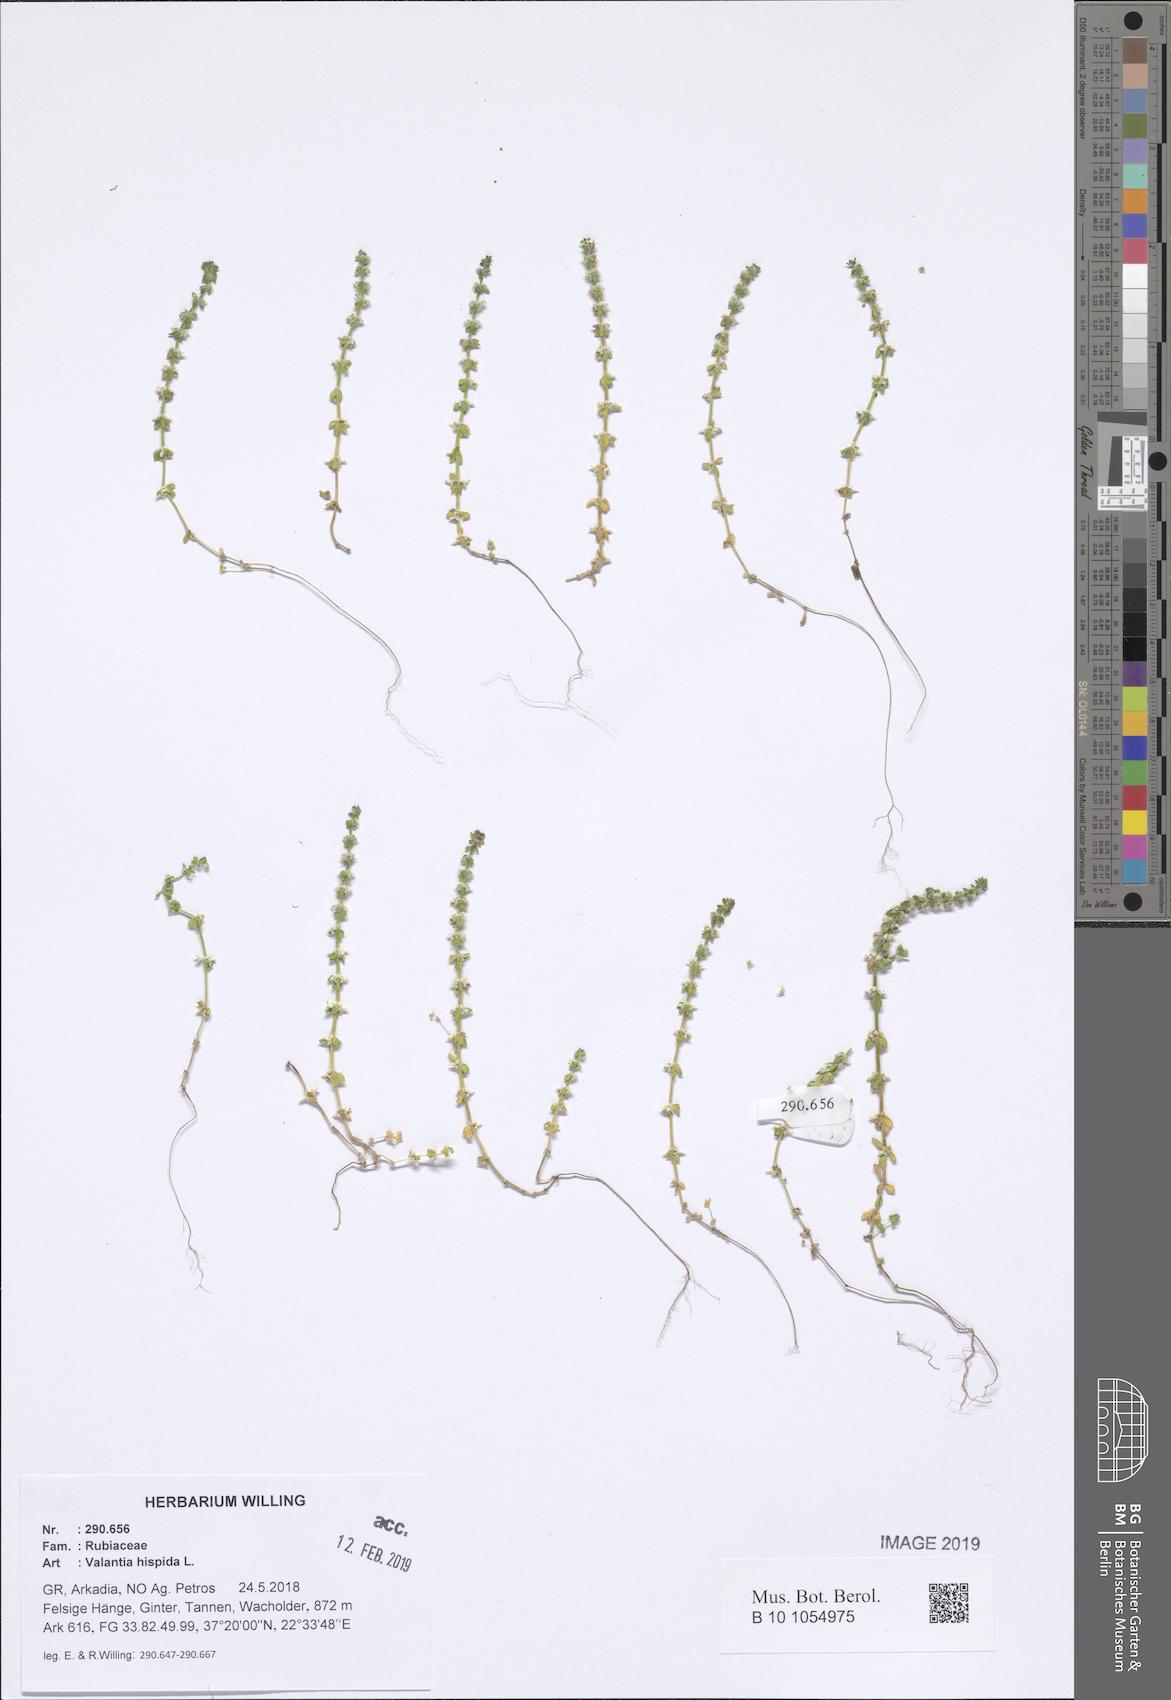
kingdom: Plantae
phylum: Tracheophyta
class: Magnoliopsida
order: Gentianales
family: Rubiaceae
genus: Valantia
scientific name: Valantia hispida
